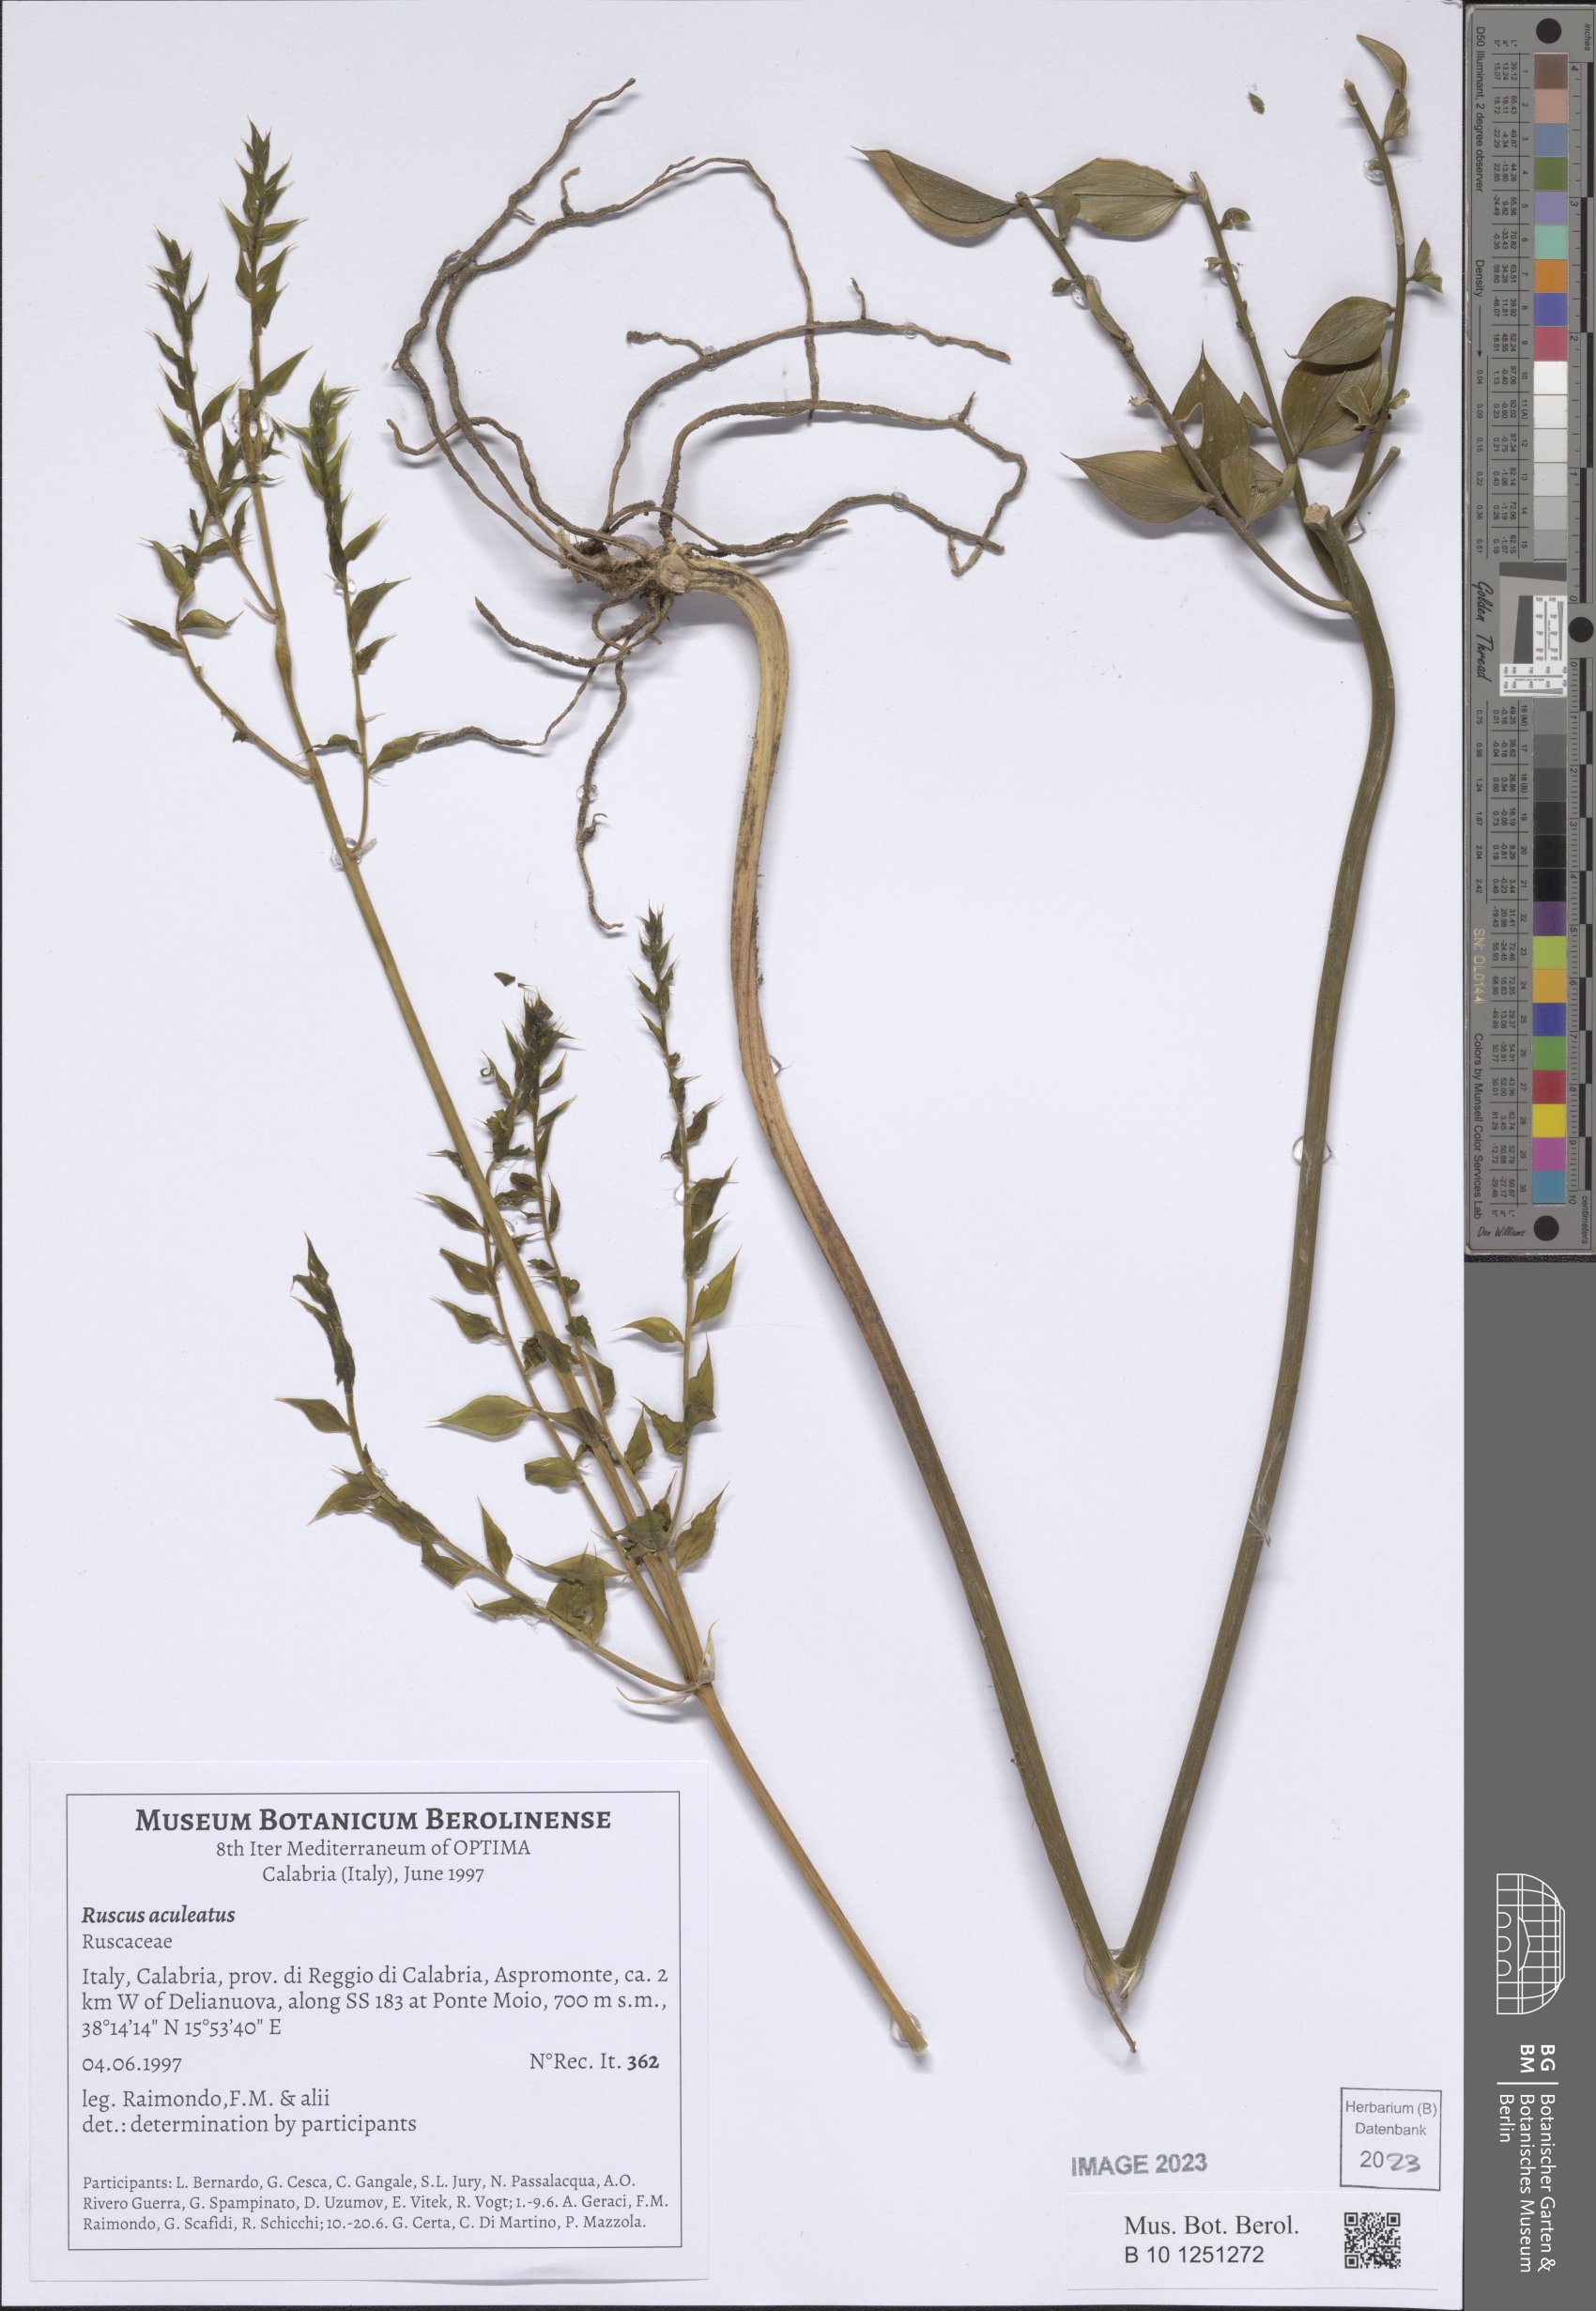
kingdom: Plantae
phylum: Tracheophyta
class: Liliopsida
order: Asparagales
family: Asparagaceae
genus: Ruscus
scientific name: Ruscus aculeatus
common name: Butcher's-broom
